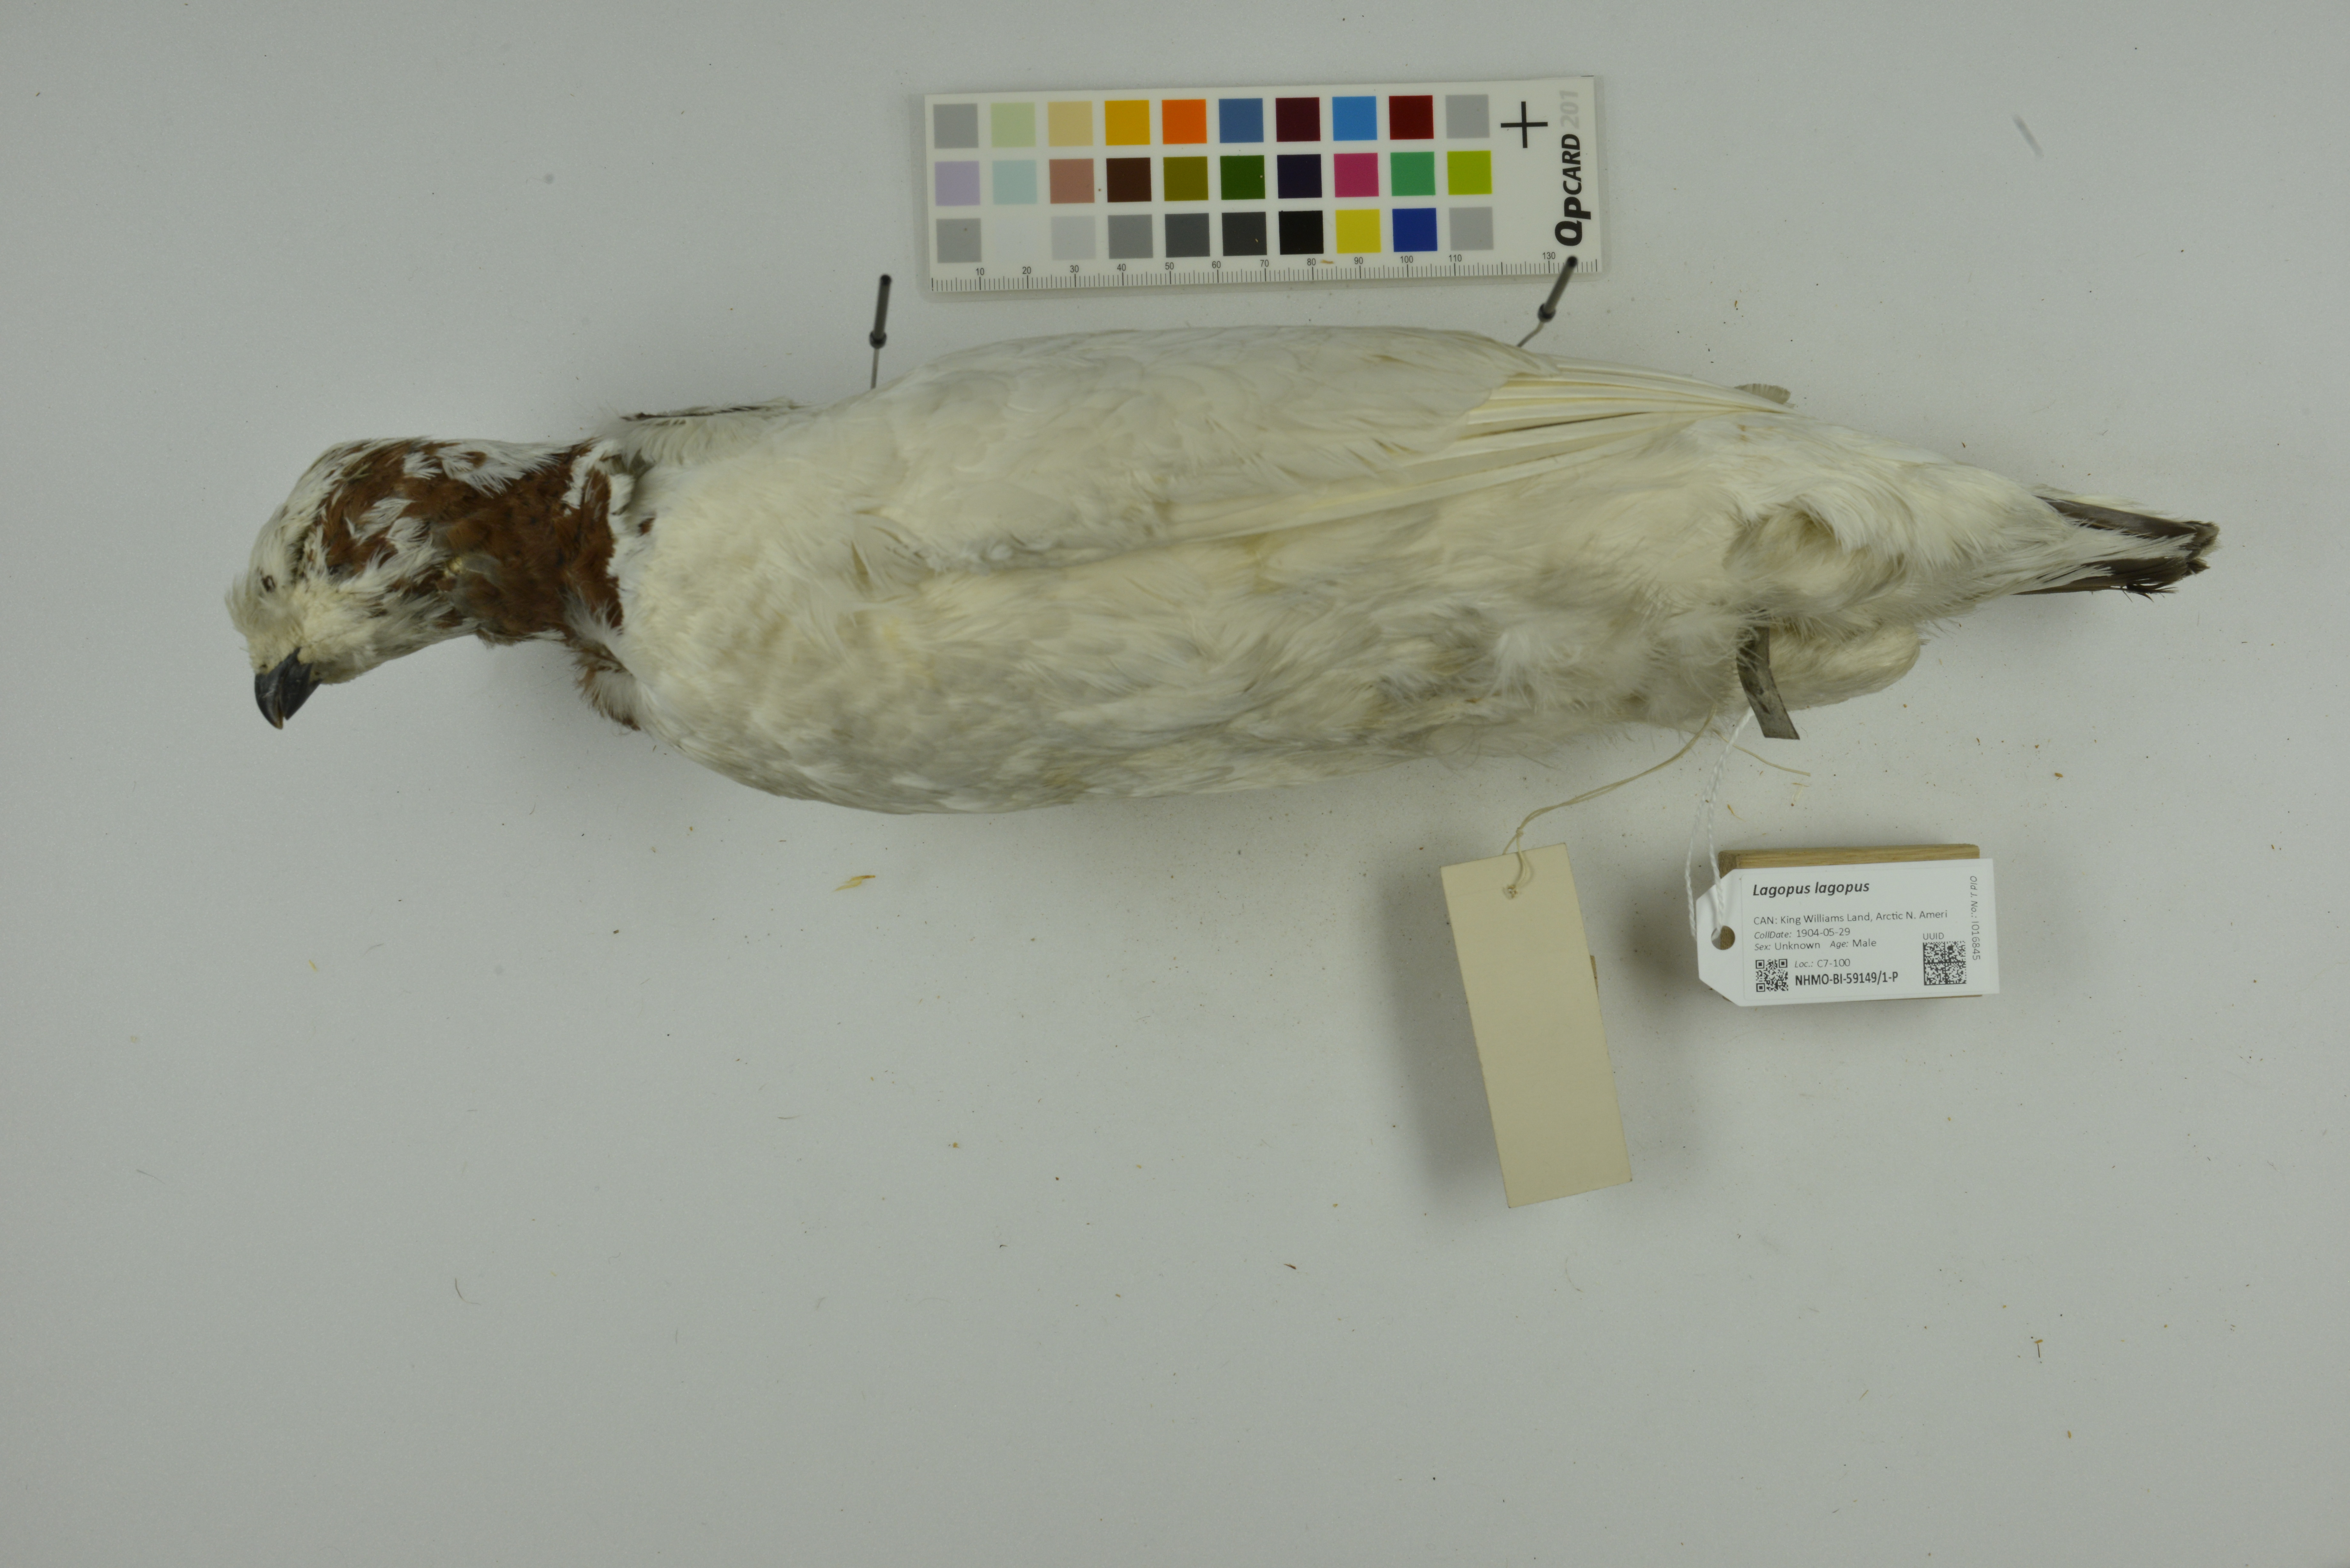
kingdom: Animalia
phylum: Chordata
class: Aves
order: Galliformes
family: Phasianidae
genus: Lagopus
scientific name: Lagopus lagopus
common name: Willow ptarmigan
